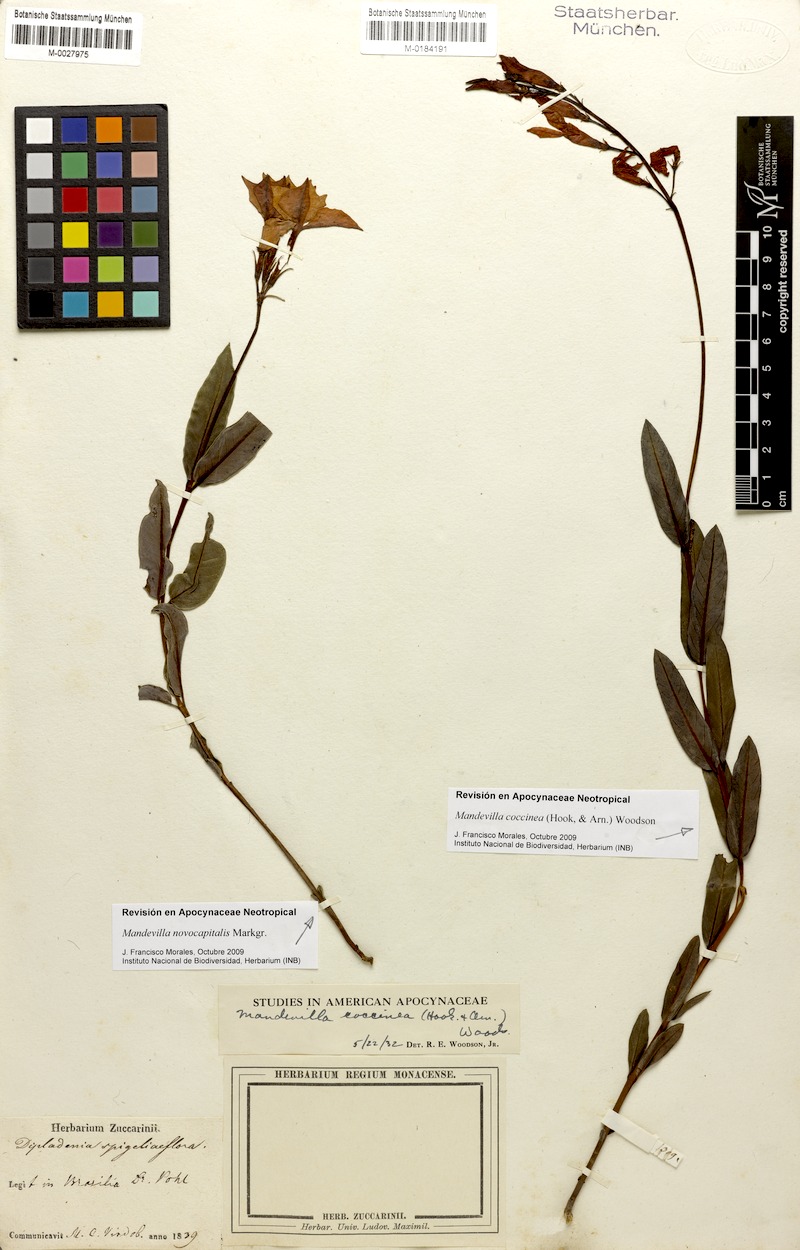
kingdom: Plantae
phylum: Tracheophyta
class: Magnoliopsida
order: Gentianales
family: Apocynaceae
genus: Mandevilla
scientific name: Mandevilla coccinea
